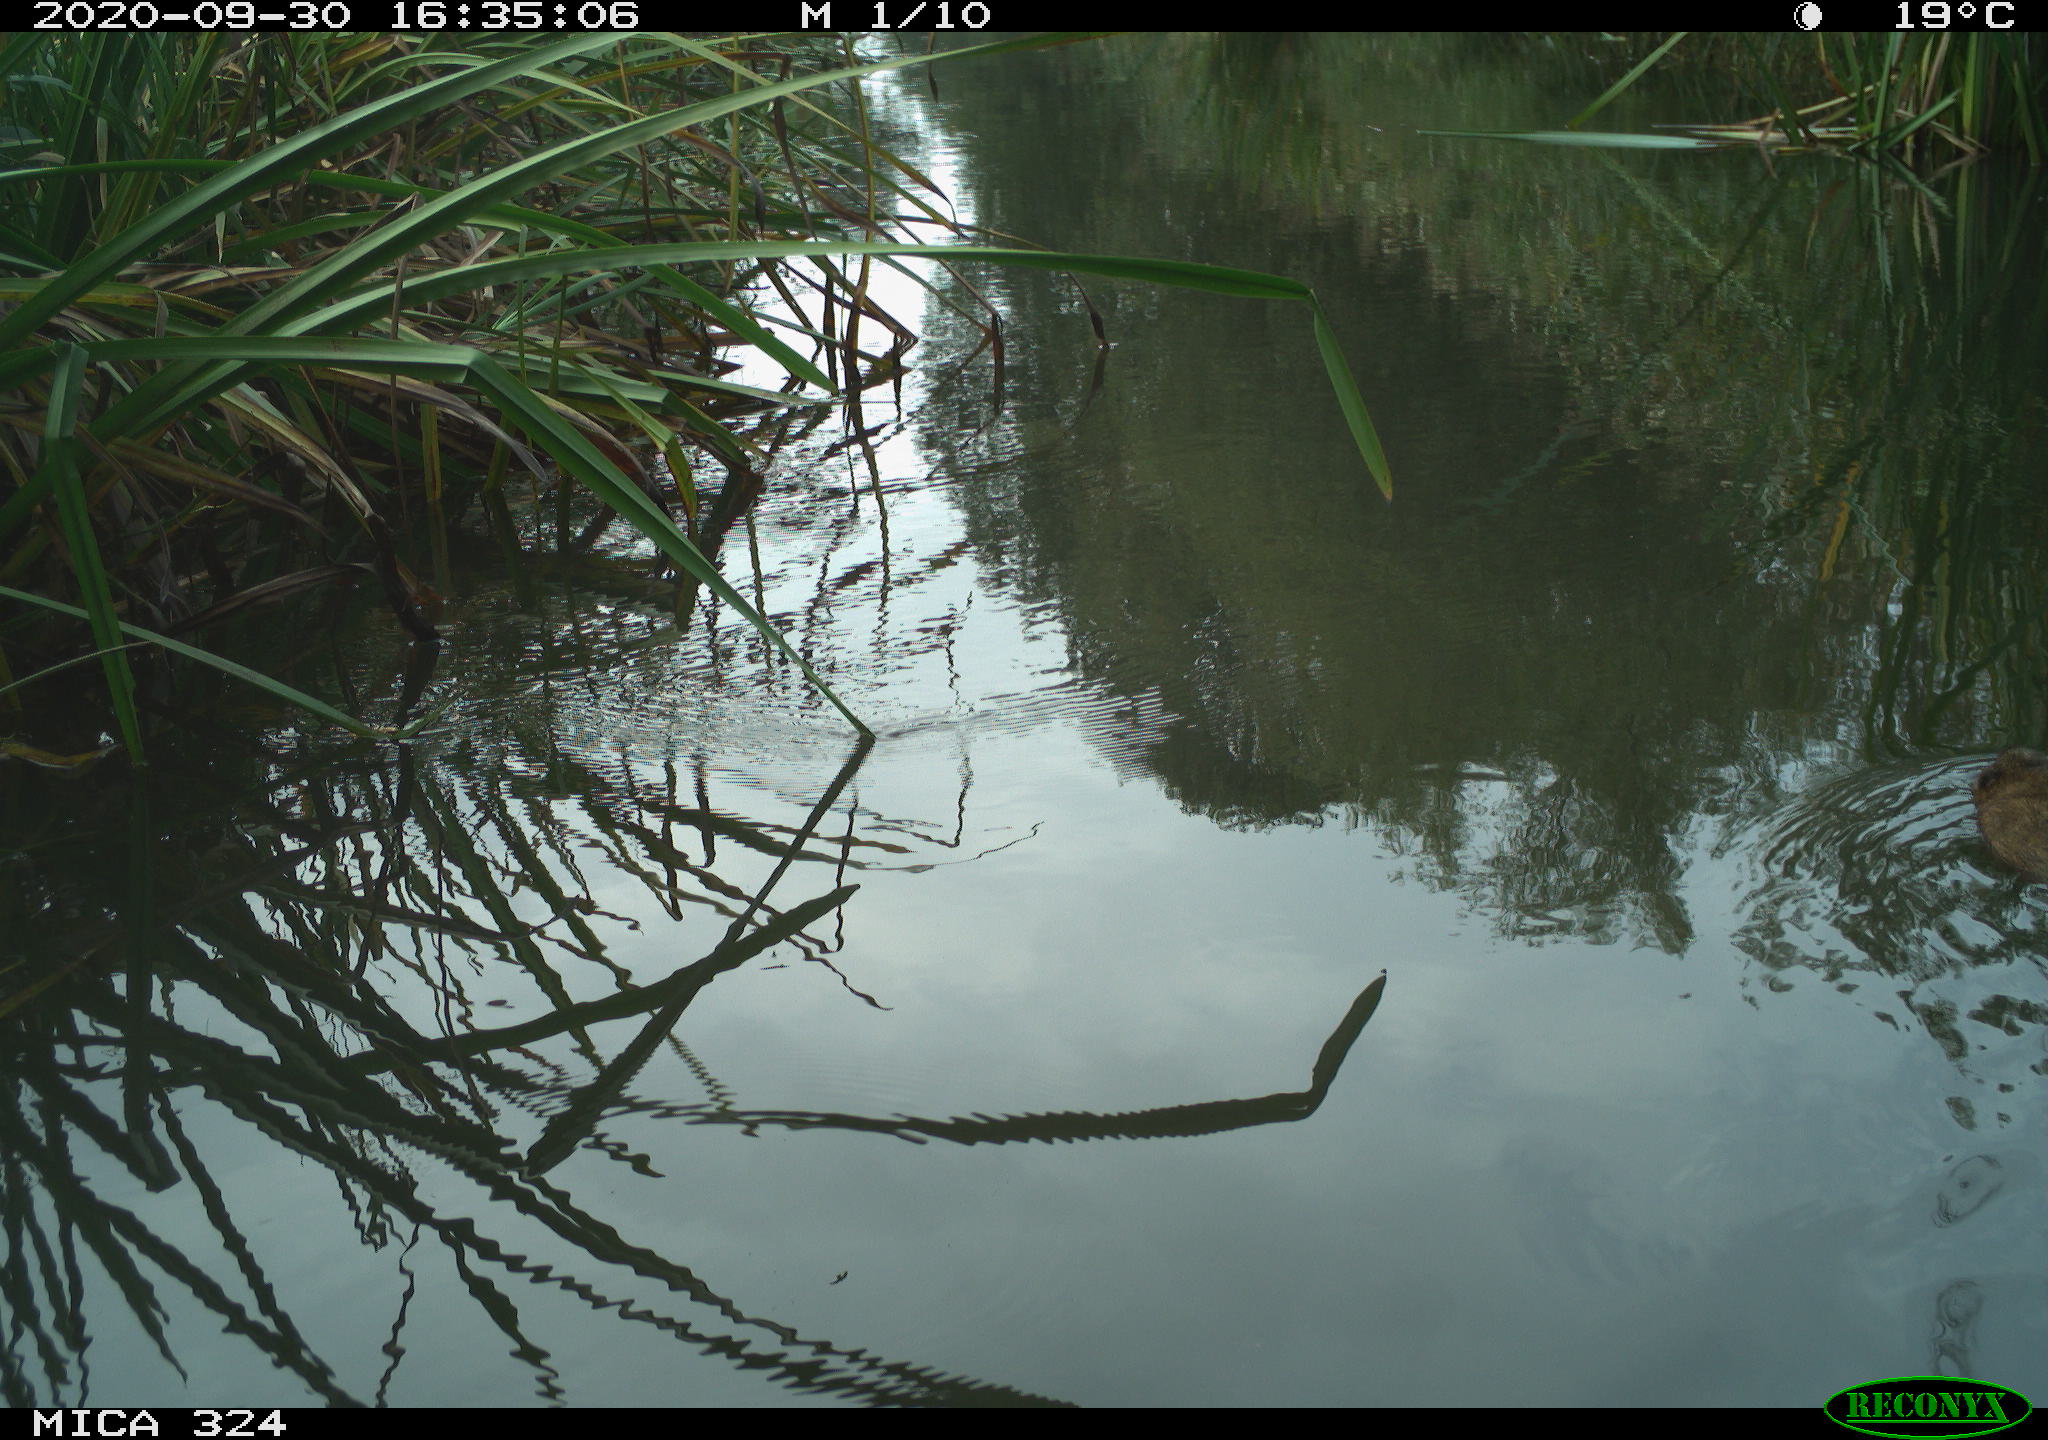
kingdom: Animalia
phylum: Chordata
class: Mammalia
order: Rodentia
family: Cricetidae
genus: Ondatra
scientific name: Ondatra zibethicus
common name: Muskrat
